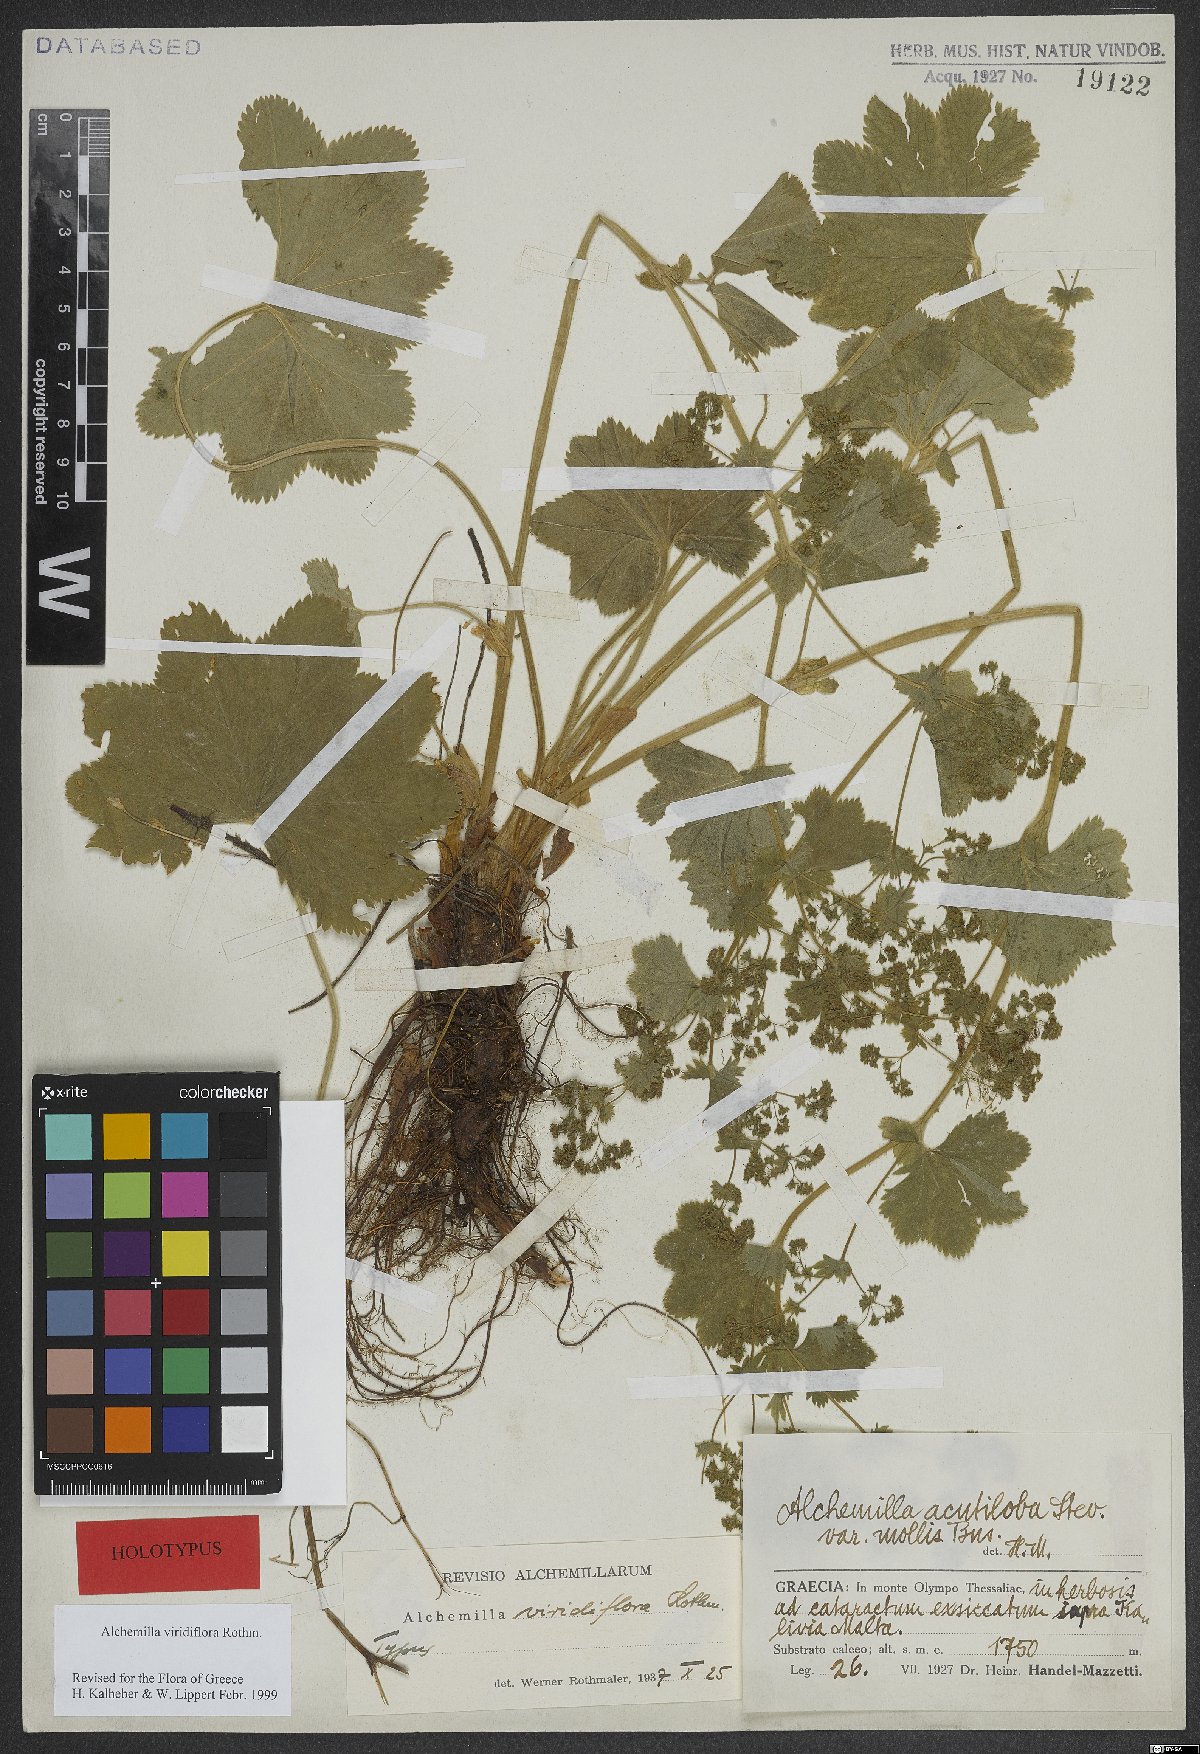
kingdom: Plantae
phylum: Tracheophyta
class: Magnoliopsida
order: Rosales
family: Rosaceae
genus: Alchemilla
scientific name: Alchemilla viridiflora
